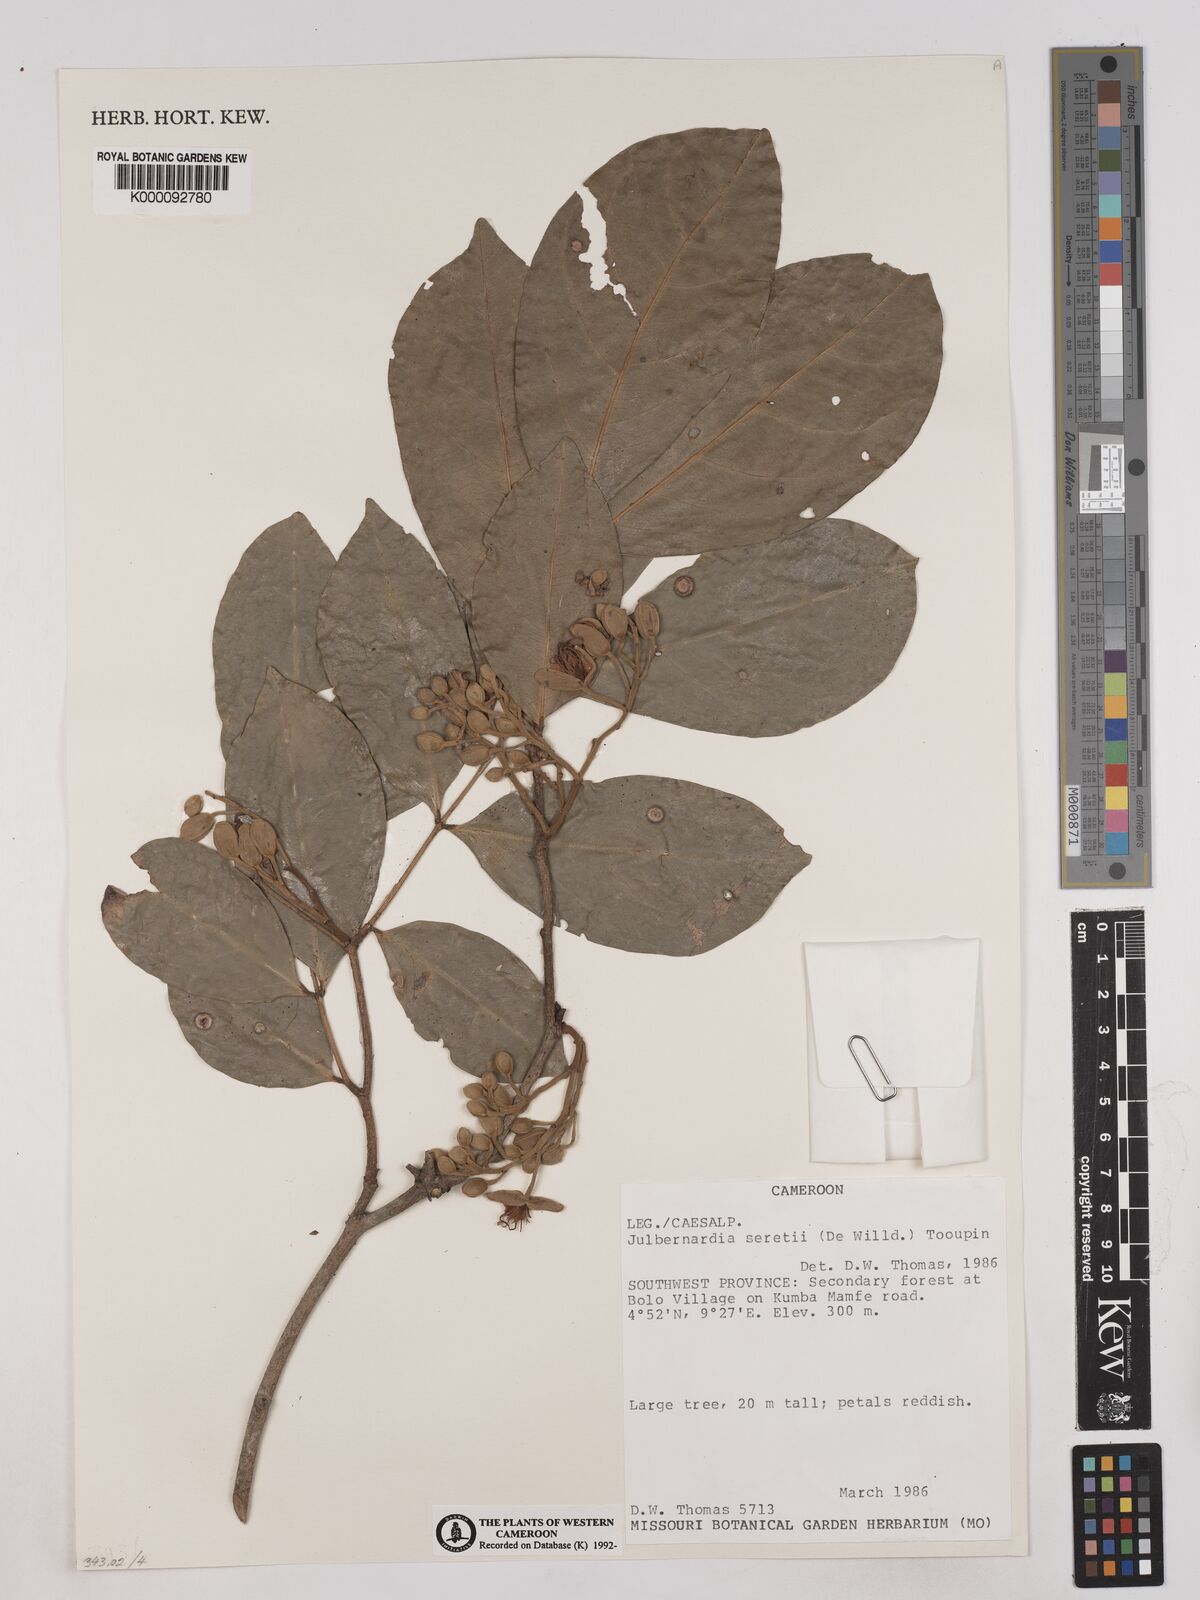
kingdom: Plantae
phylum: Tracheophyta
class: Magnoliopsida
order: Fabales
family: Fabaceae
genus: Julbernardia
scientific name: Julbernardia seretii
